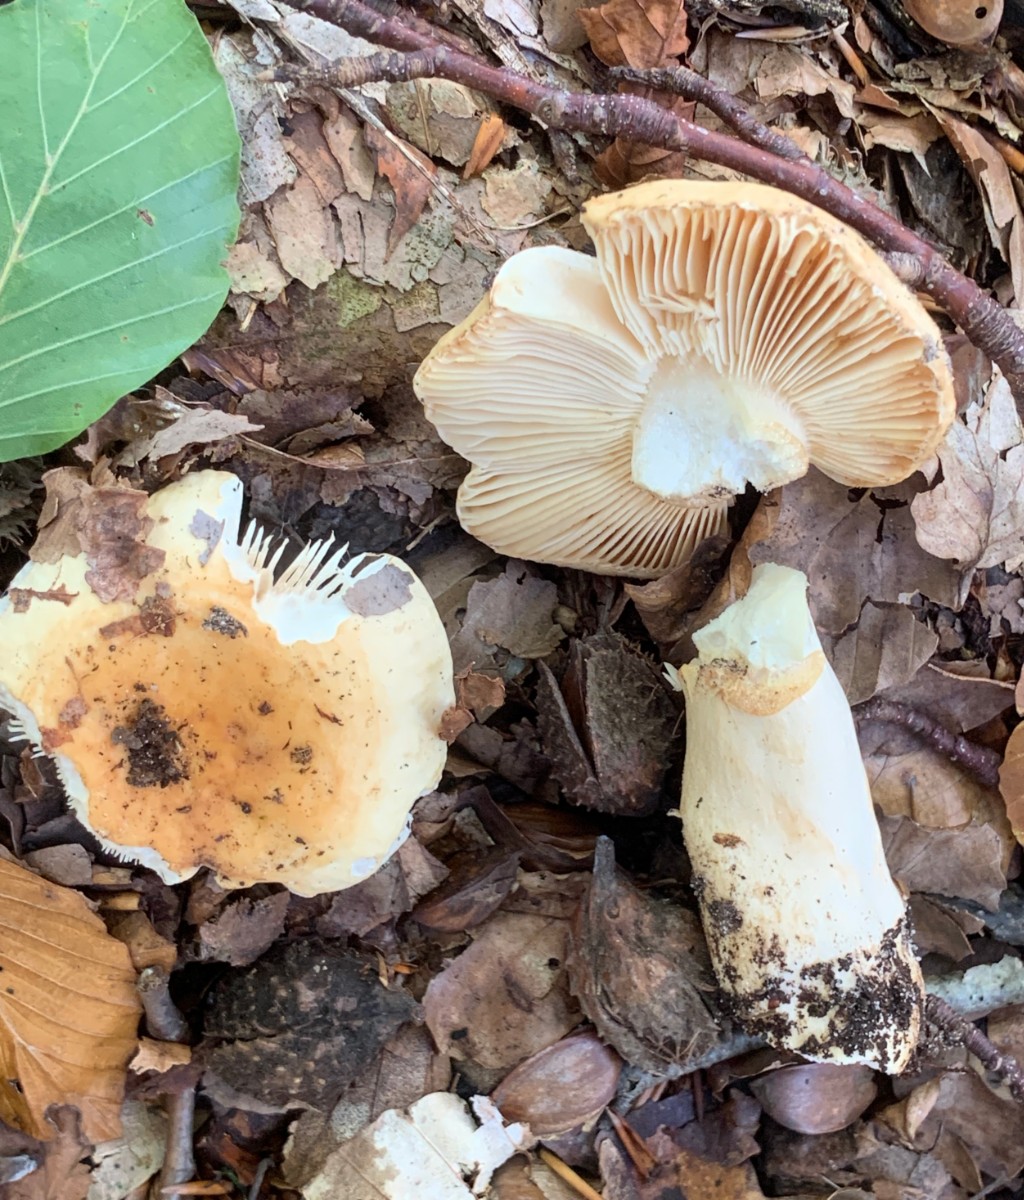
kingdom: Fungi
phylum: Basidiomycota
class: Agaricomycetes
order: Russulales
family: Russulaceae
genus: Russula
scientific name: Russula fellea
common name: galde-skørhat
